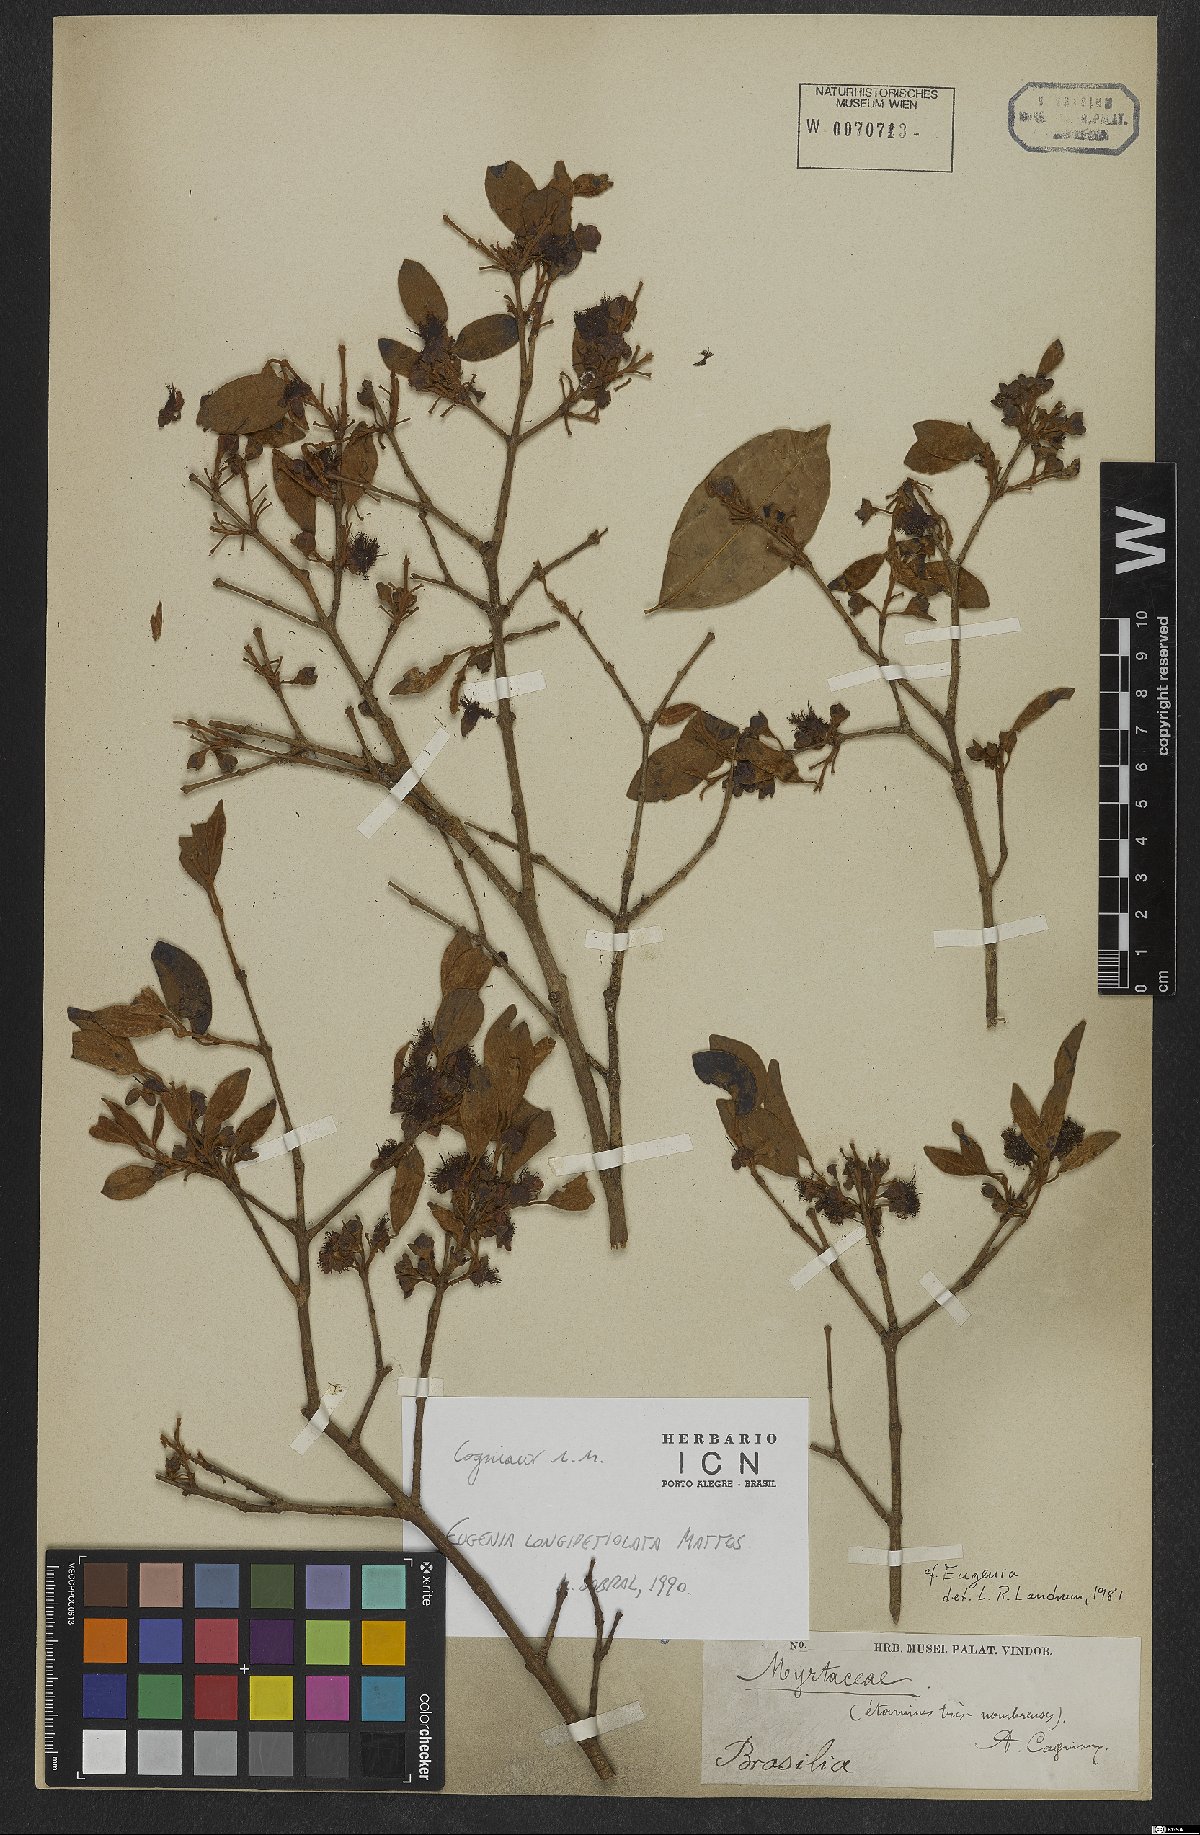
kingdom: Plantae
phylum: Tracheophyta
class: Magnoliopsida
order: Myrtales
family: Myrtaceae
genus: Eugenia
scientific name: Eugenia longipetiolata
